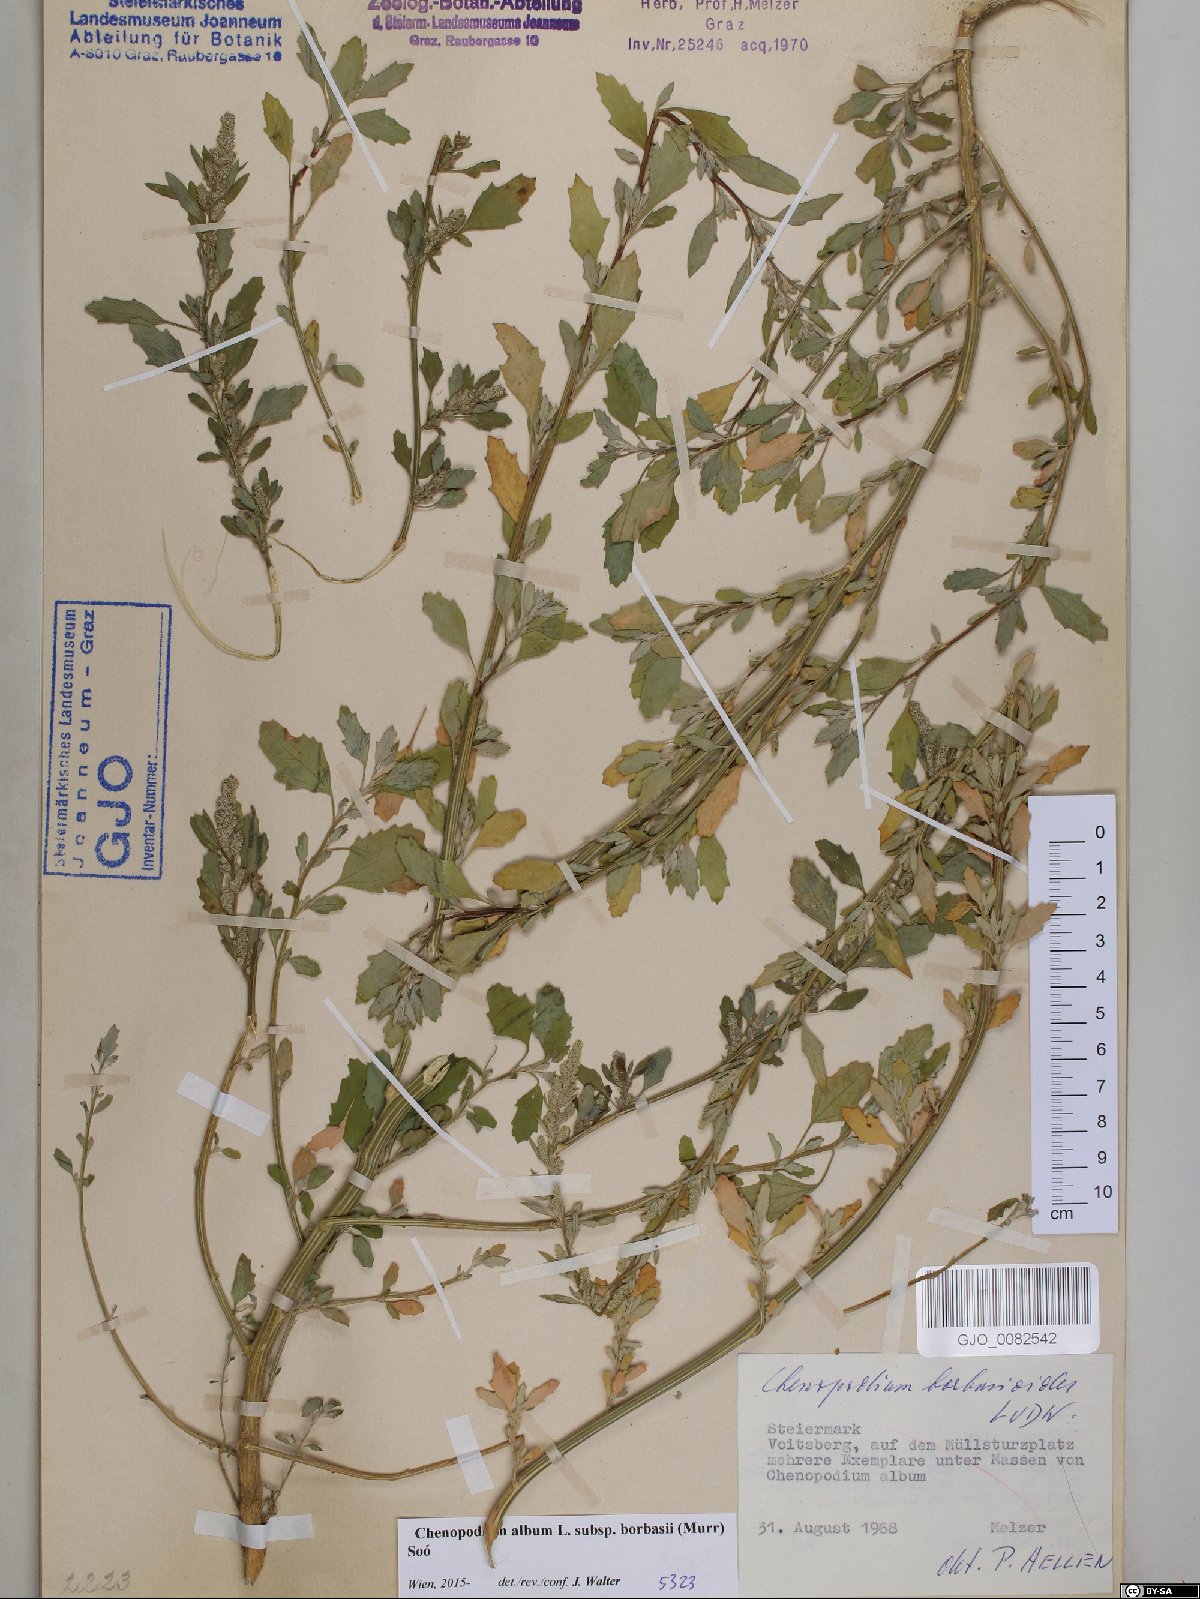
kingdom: Plantae
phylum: Tracheophyta
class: Magnoliopsida
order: Caryophyllales
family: Amaranthaceae
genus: Chenopodium
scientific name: Chenopodium borbasii
